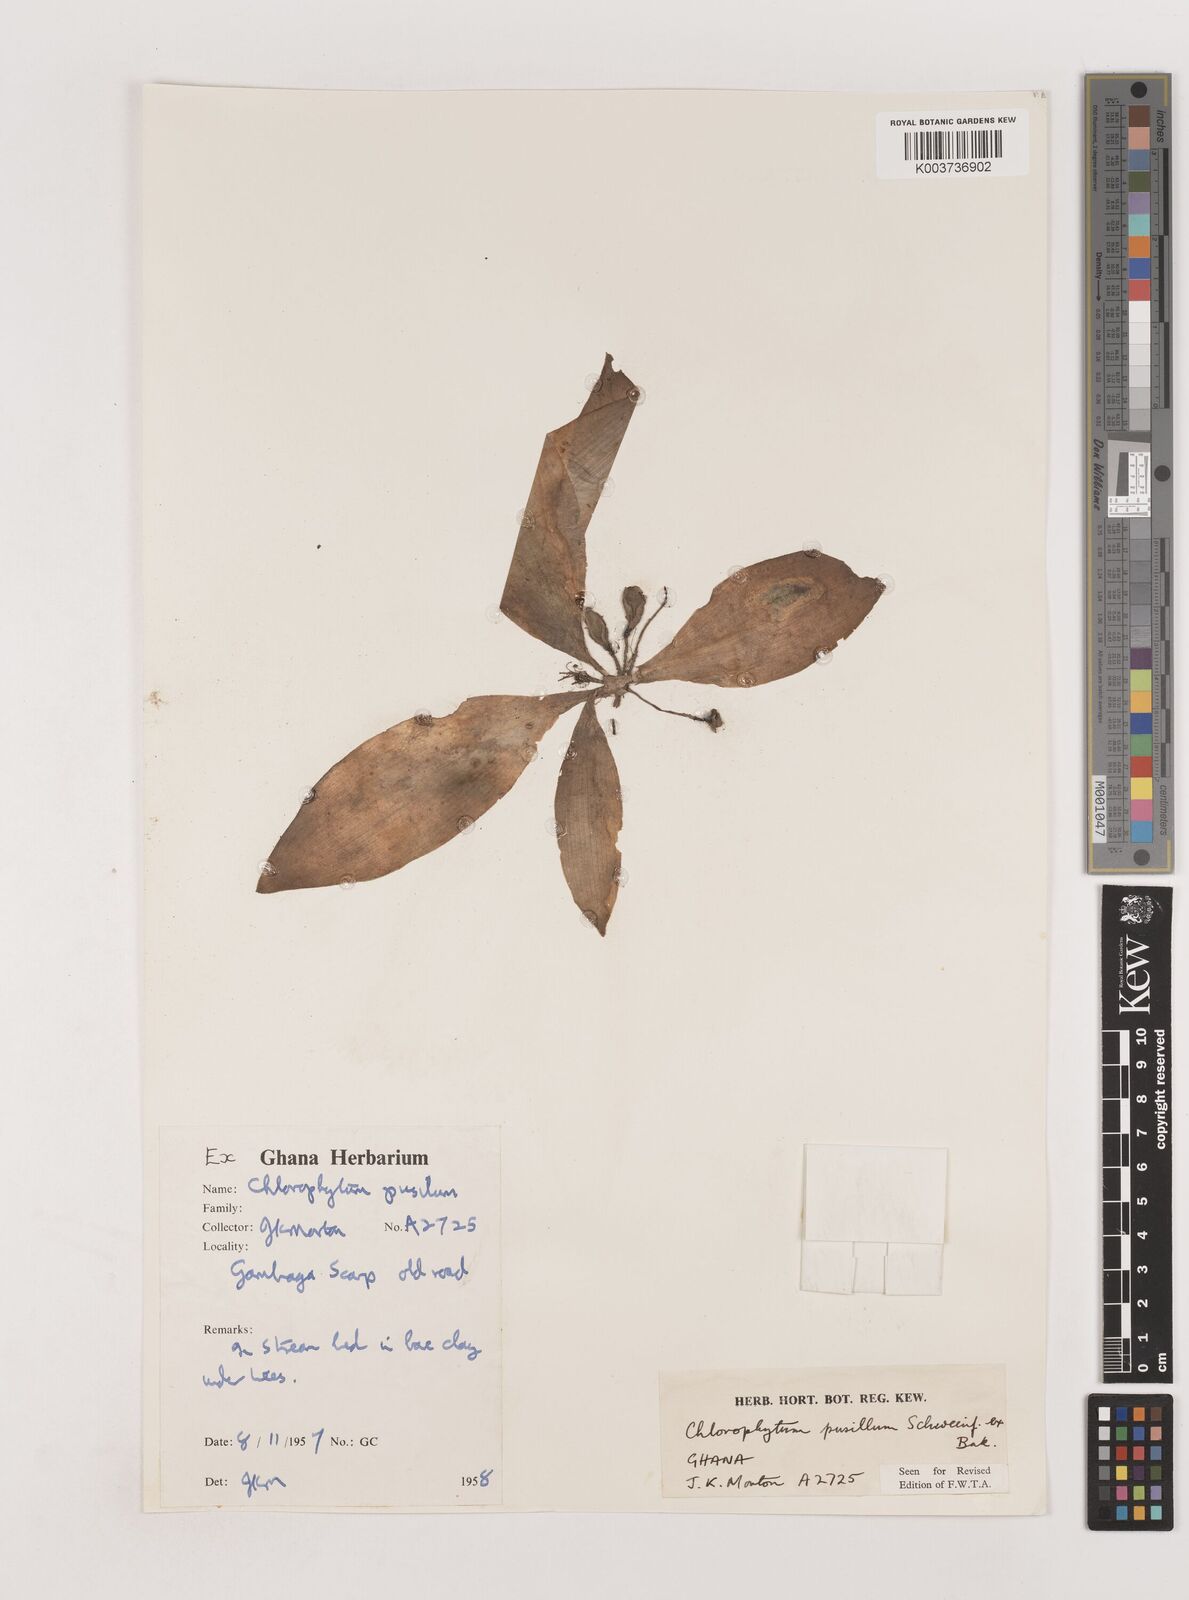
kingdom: Plantae
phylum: Tracheophyta
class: Liliopsida
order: Asparagales
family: Asparagaceae
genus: Chlorophytum
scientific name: Chlorophytum pusillum
